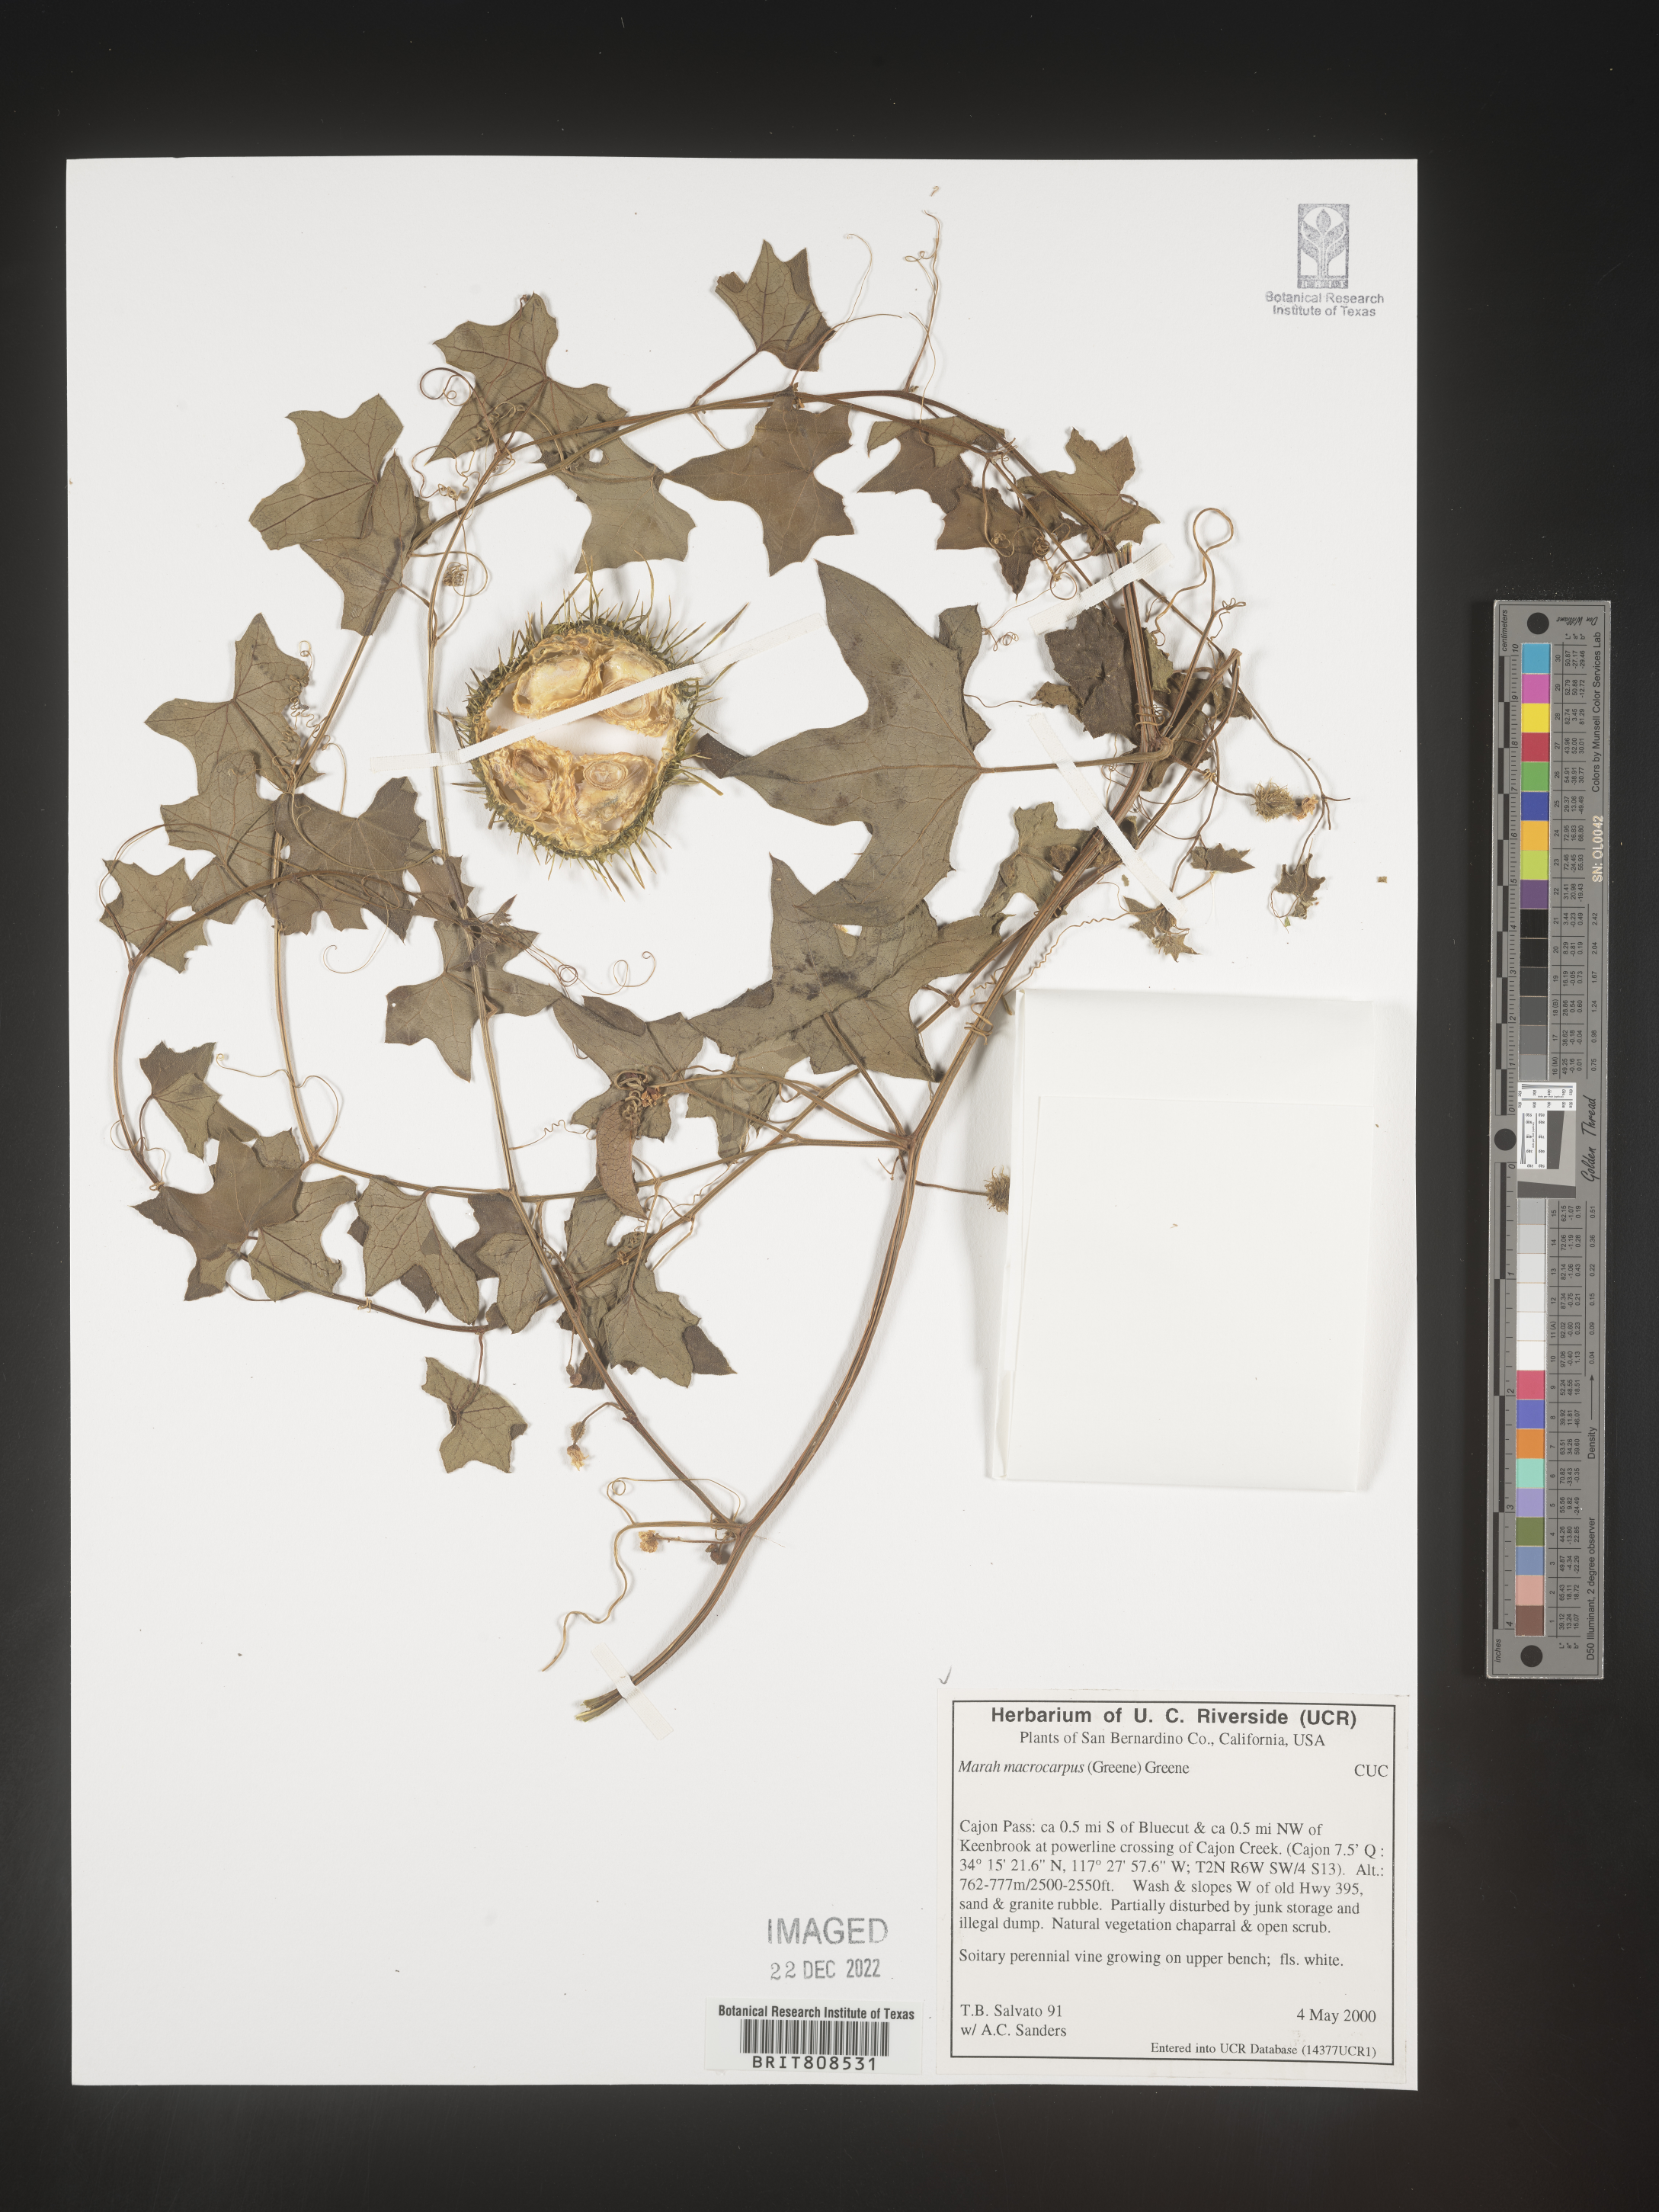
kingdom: Plantae
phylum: Tracheophyta
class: Magnoliopsida
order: Cucurbitales
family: Cucurbitaceae
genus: Marah
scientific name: Marah
